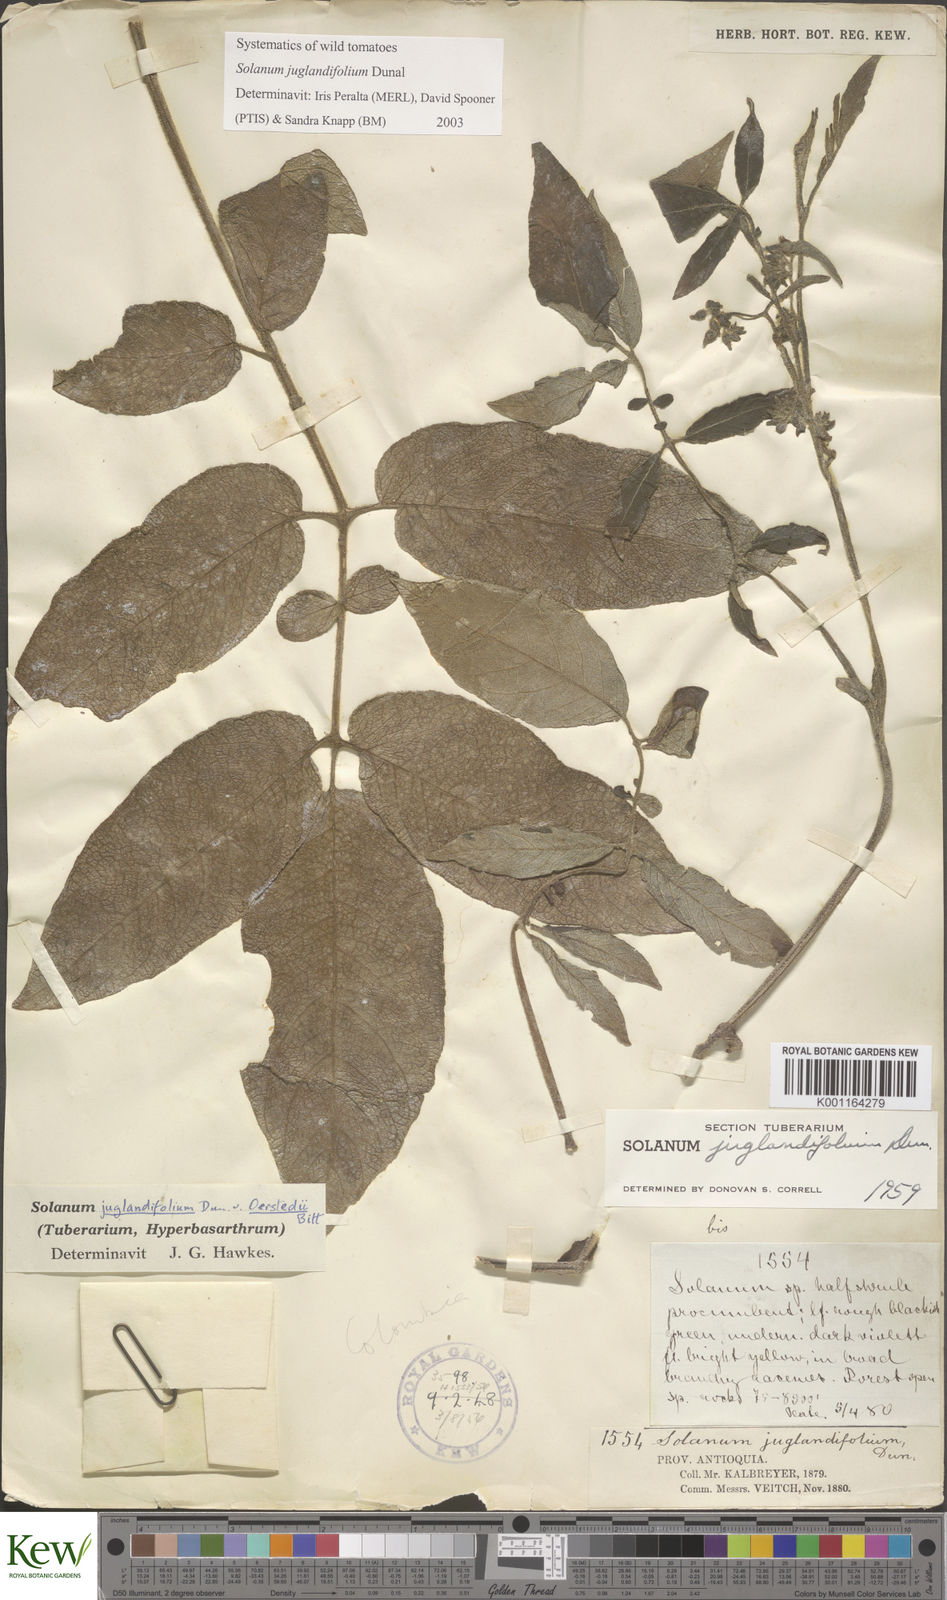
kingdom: Plantae
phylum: Tracheophyta
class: Magnoliopsida
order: Solanales
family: Solanaceae
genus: Solanum
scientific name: Solanum juglandifolium
